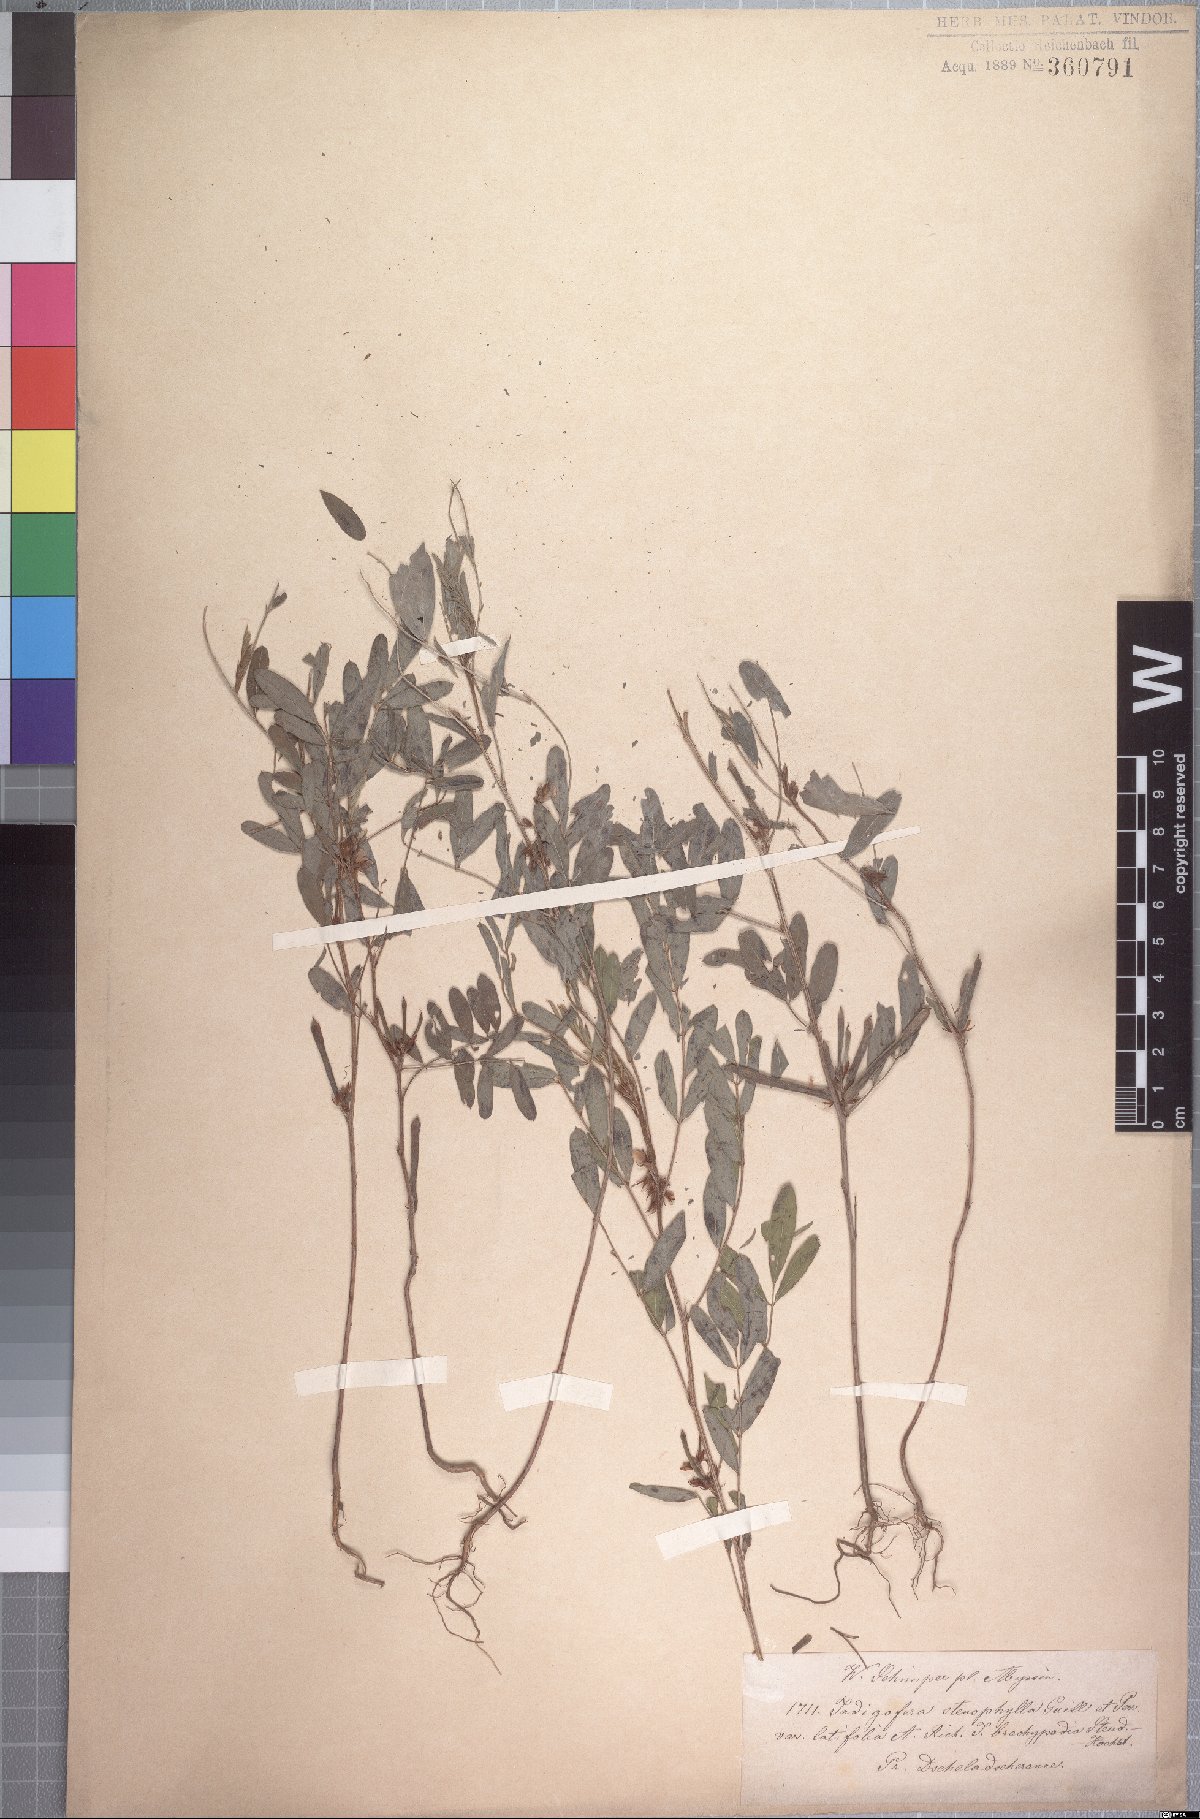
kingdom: Plantae
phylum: Tracheophyta
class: Magnoliopsida
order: Fabales
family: Fabaceae
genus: Indigofera
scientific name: Indigofera prieureana
